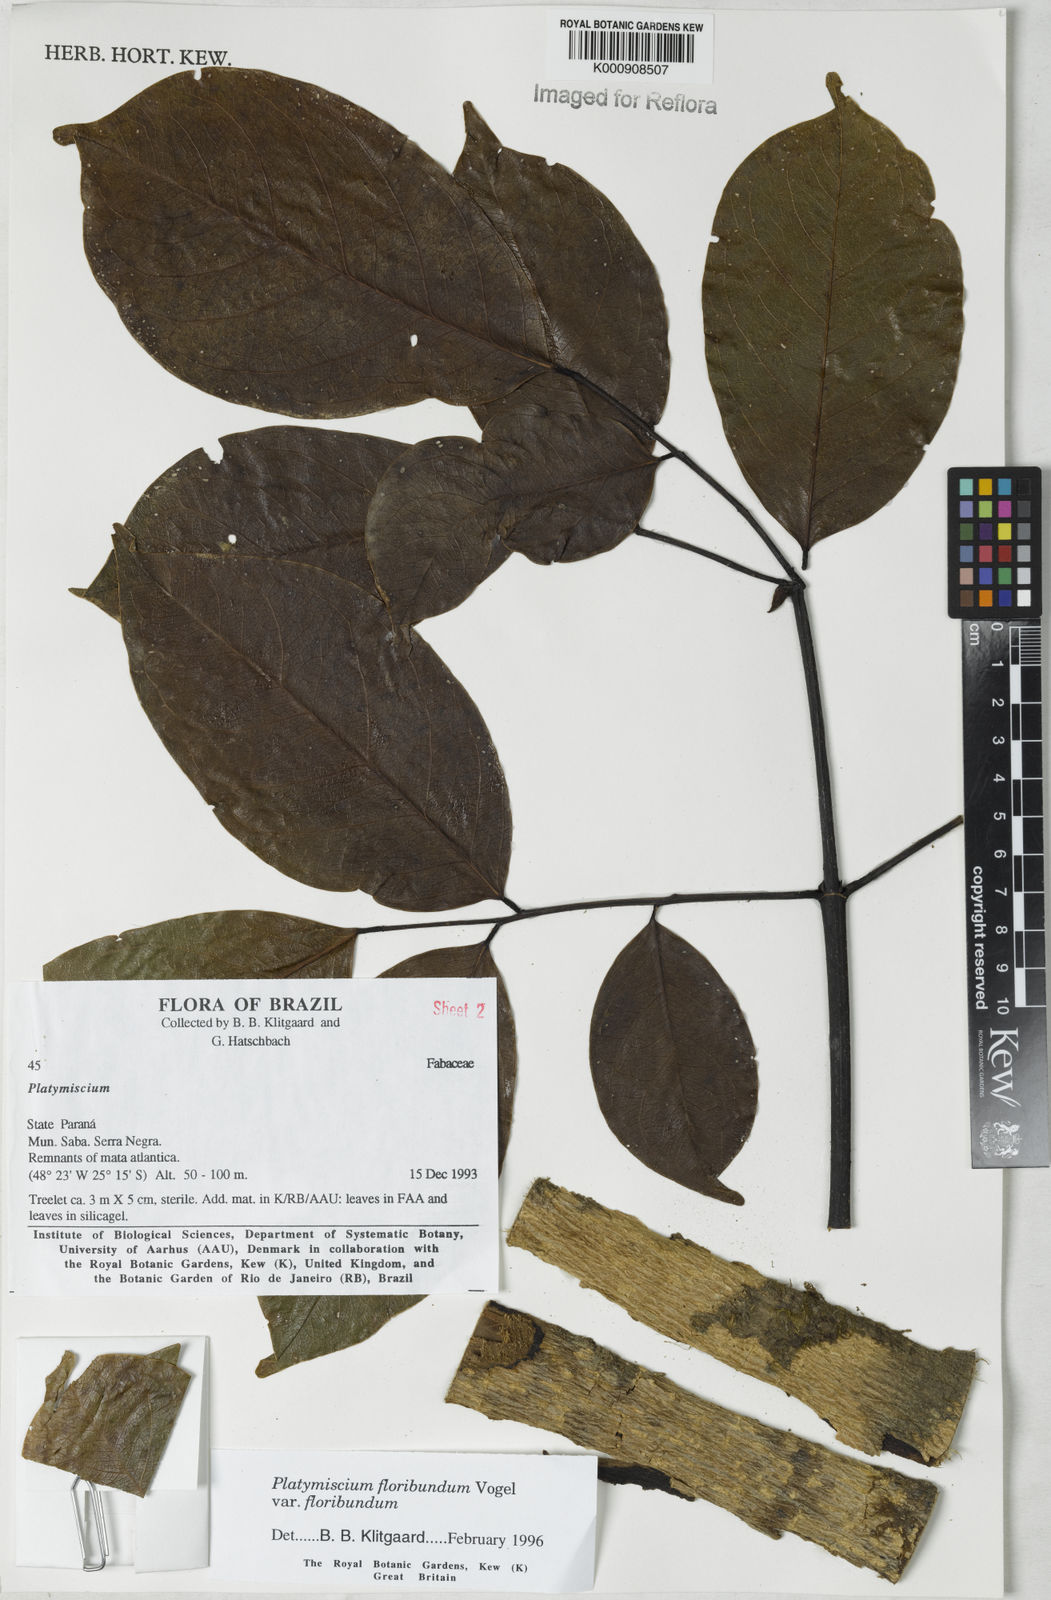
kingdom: Plantae
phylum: Tracheophyta
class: Magnoliopsida
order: Fabales
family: Fabaceae
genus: Platymiscium
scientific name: Platymiscium floribundum
